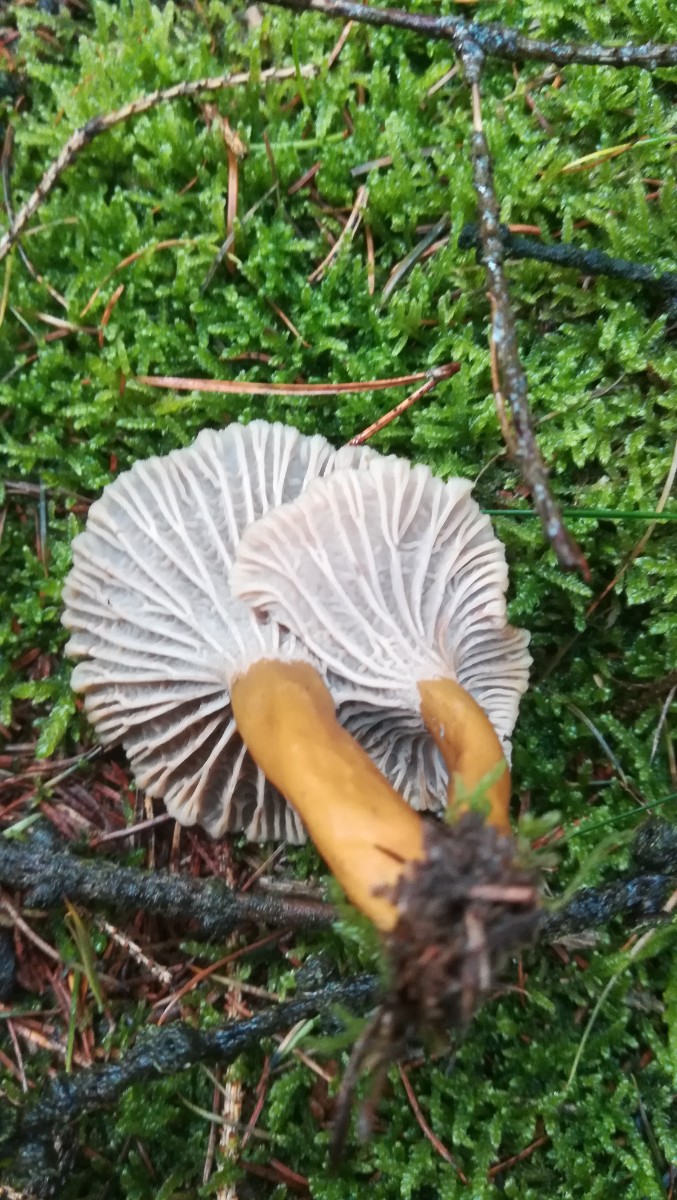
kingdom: Fungi
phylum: Basidiomycota
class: Agaricomycetes
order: Cantharellales
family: Hydnaceae
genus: Craterellus
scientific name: Craterellus tubaeformis
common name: tragt-kantarel
